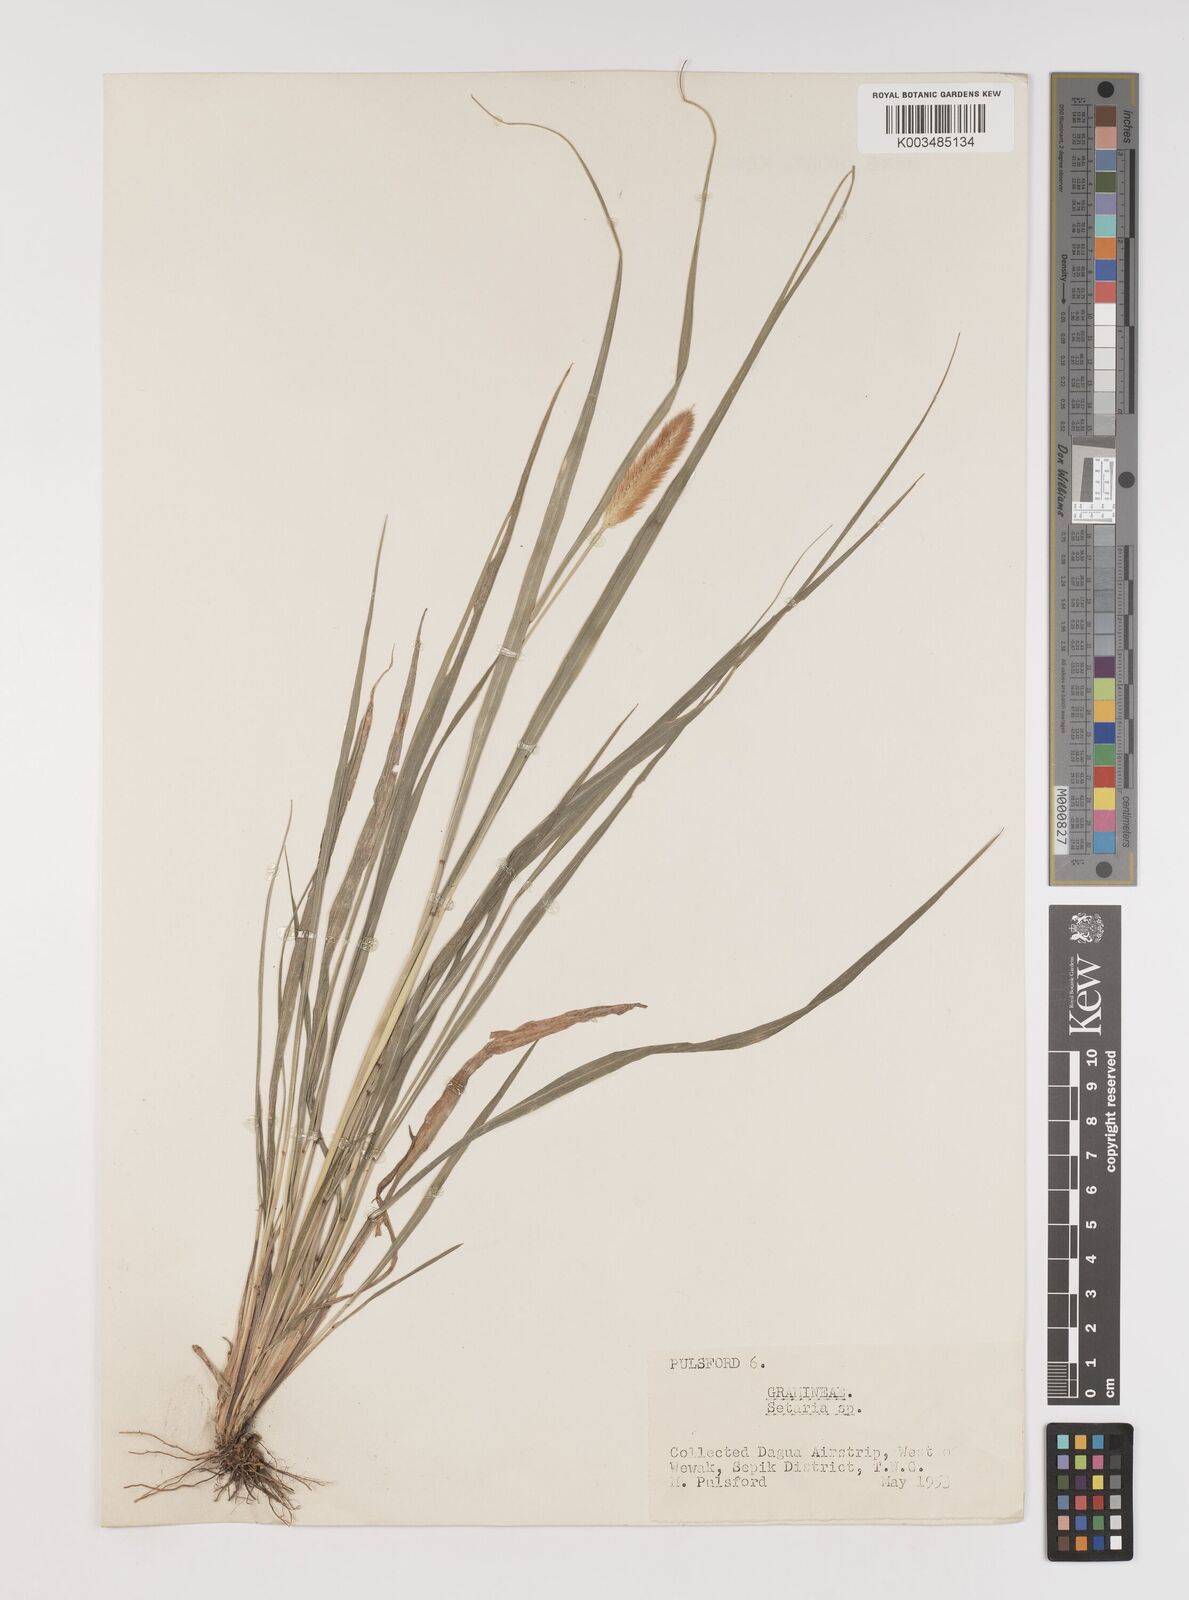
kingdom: Plantae
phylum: Tracheophyta
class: Liliopsida
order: Poales
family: Poaceae
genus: Setaria
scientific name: Setaria
